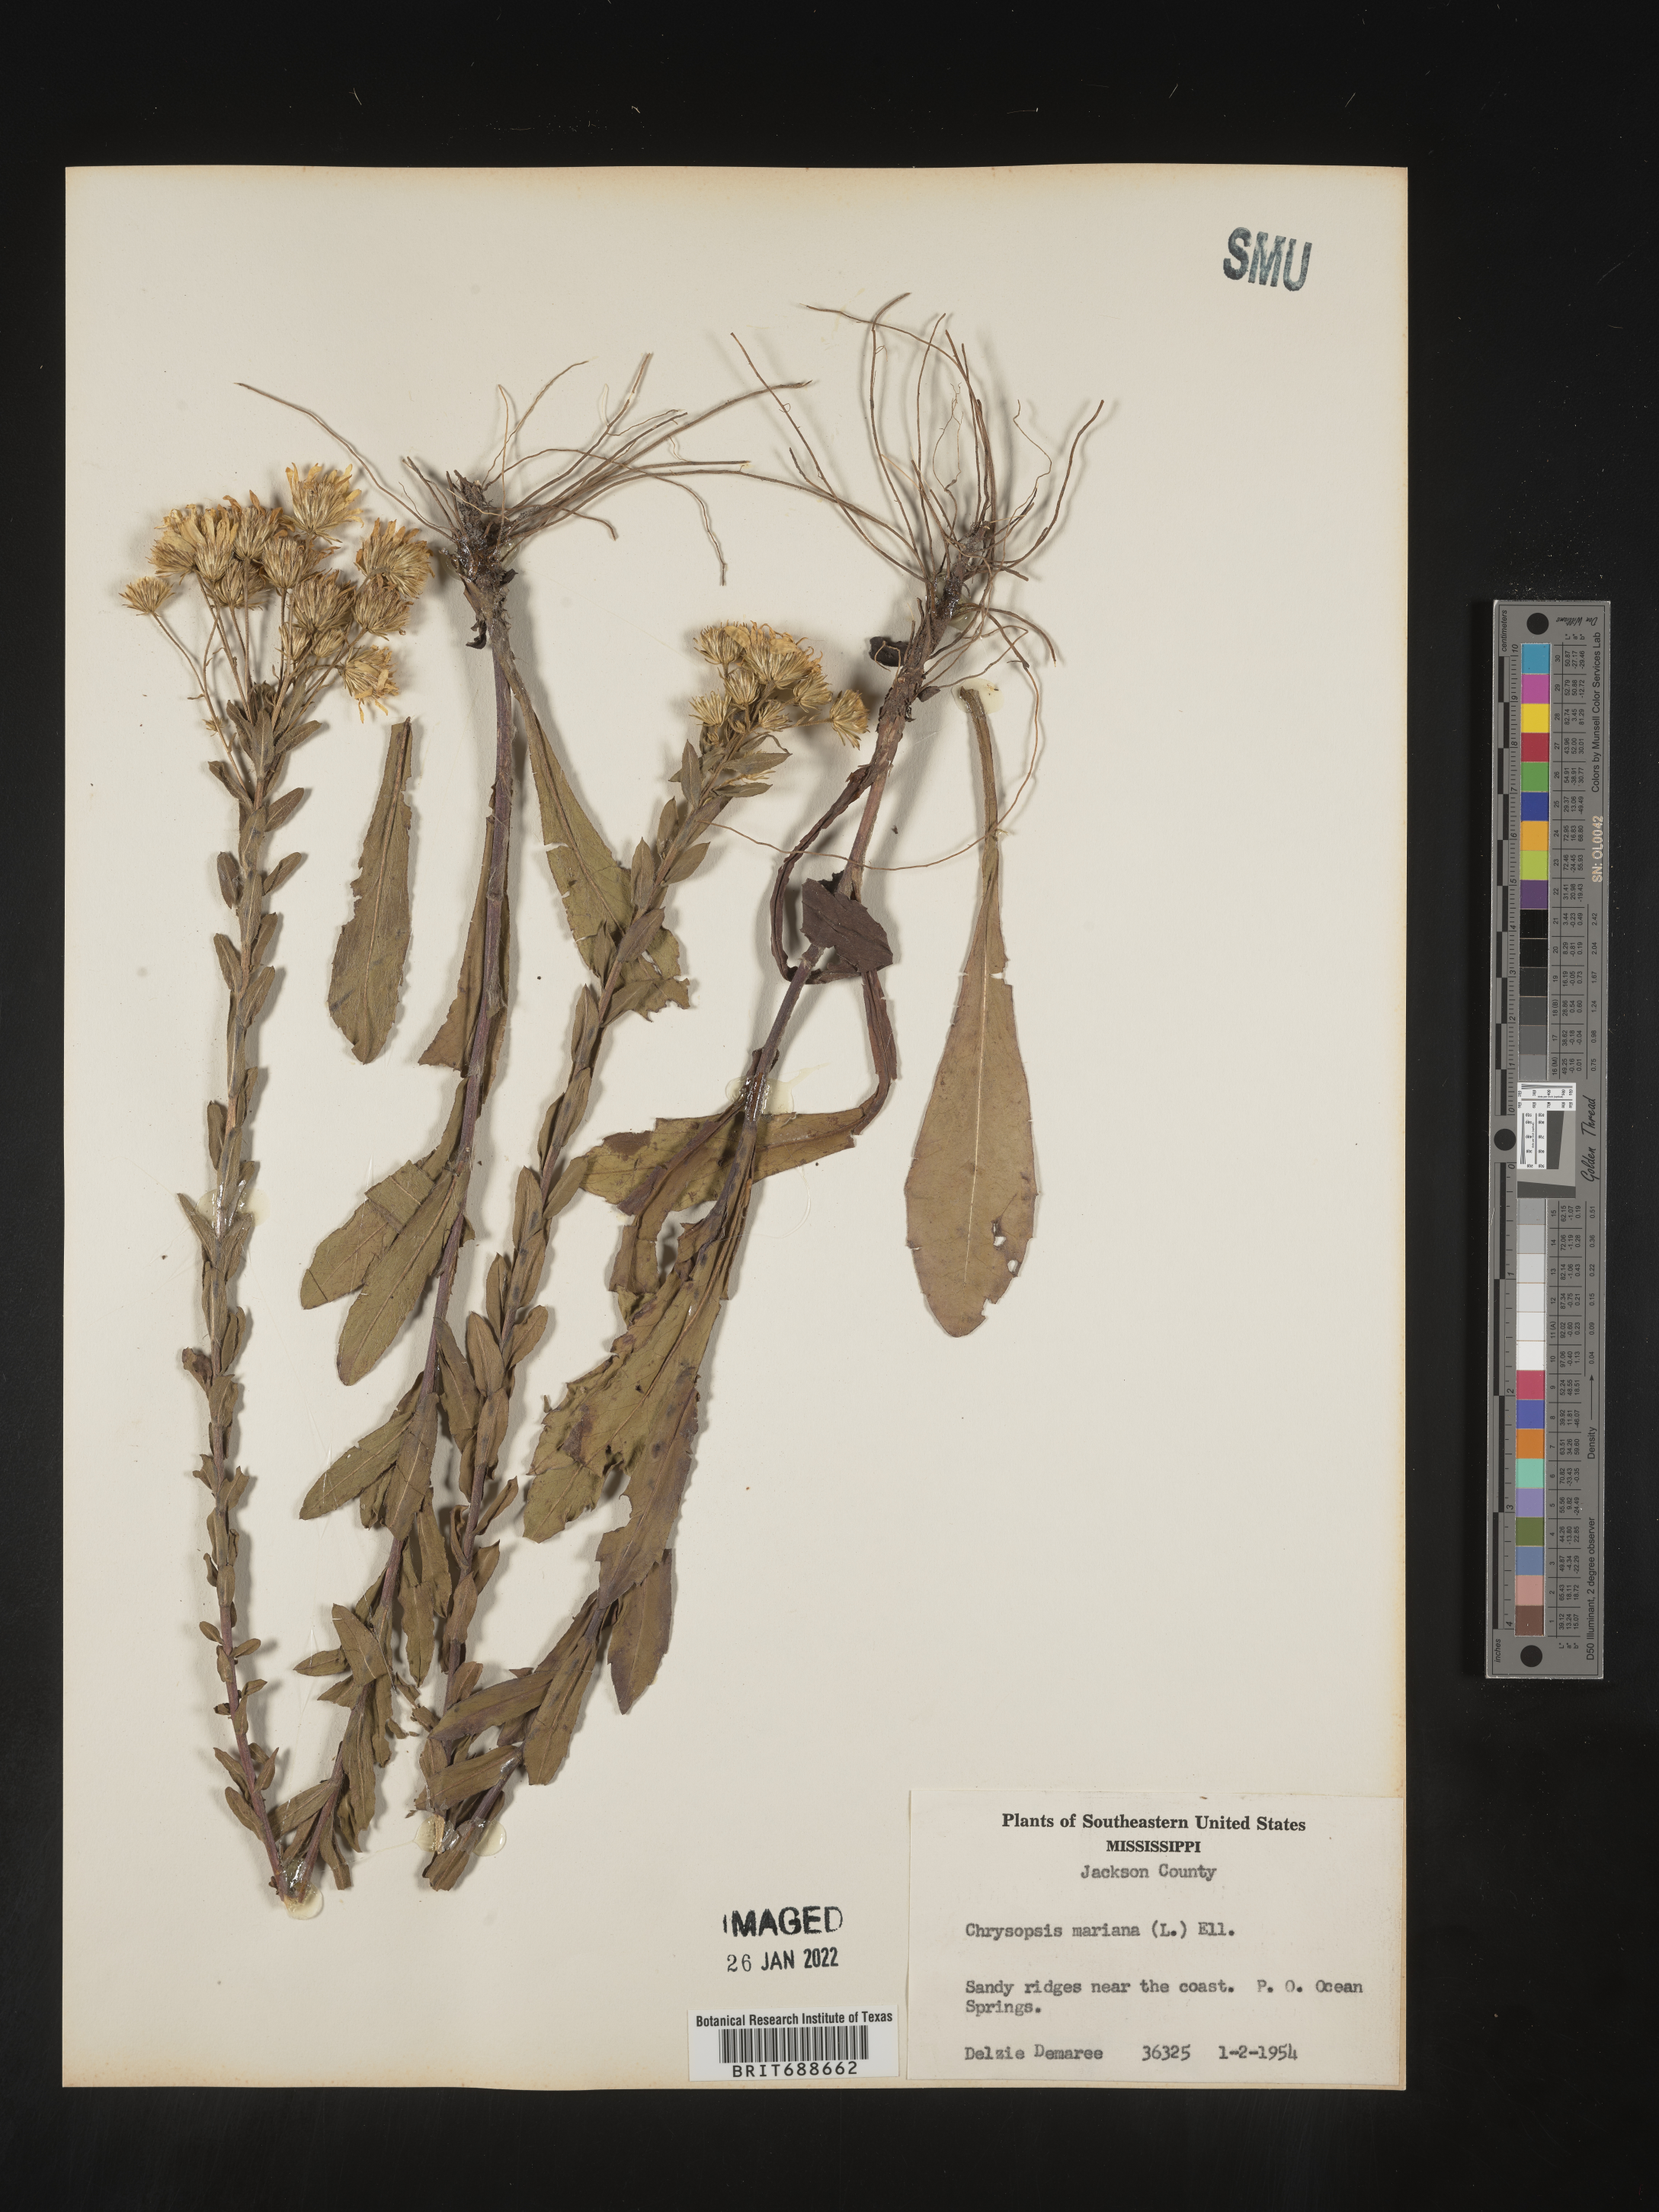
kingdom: Plantae
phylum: Tracheophyta
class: Magnoliopsida
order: Asterales
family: Asteraceae
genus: Chrysopsis
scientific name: Chrysopsis mariana
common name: Maryland golden-aster
